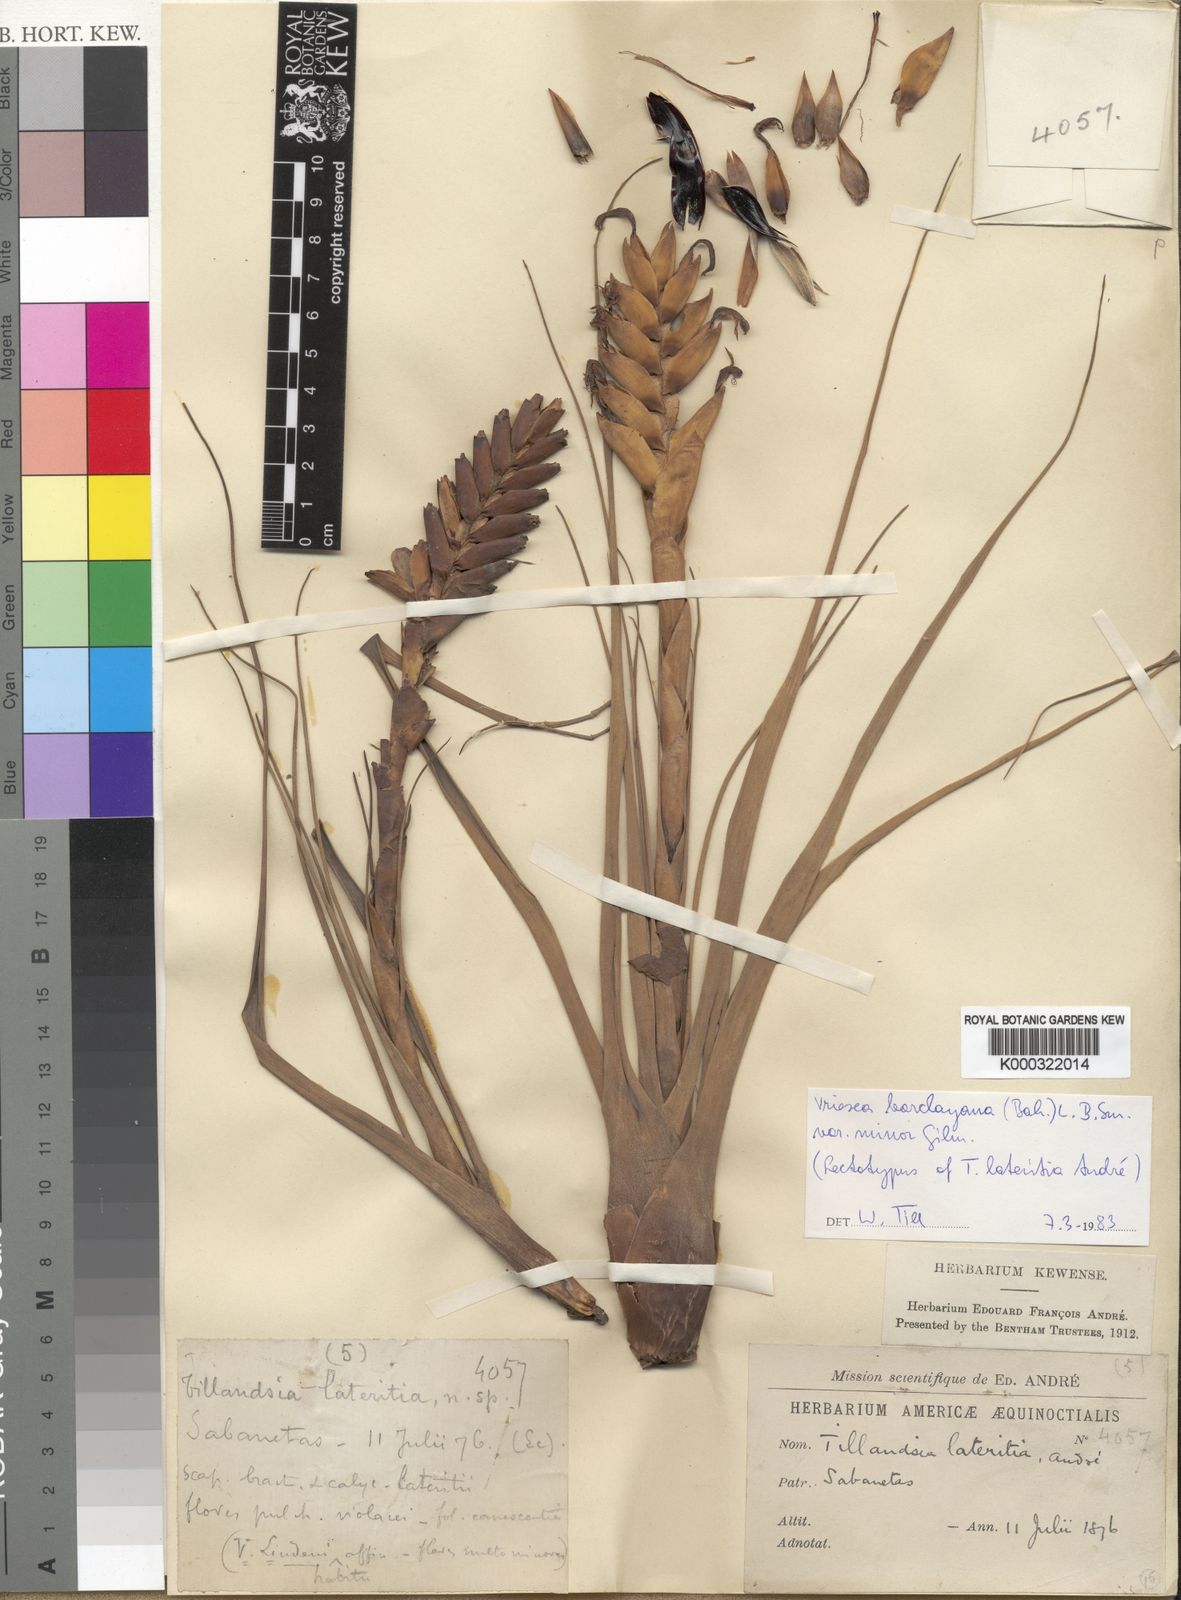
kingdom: Plantae
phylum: Tracheophyta
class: Liliopsida
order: Poales
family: Bromeliaceae
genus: Tillandsia
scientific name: Tillandsia barclayana
